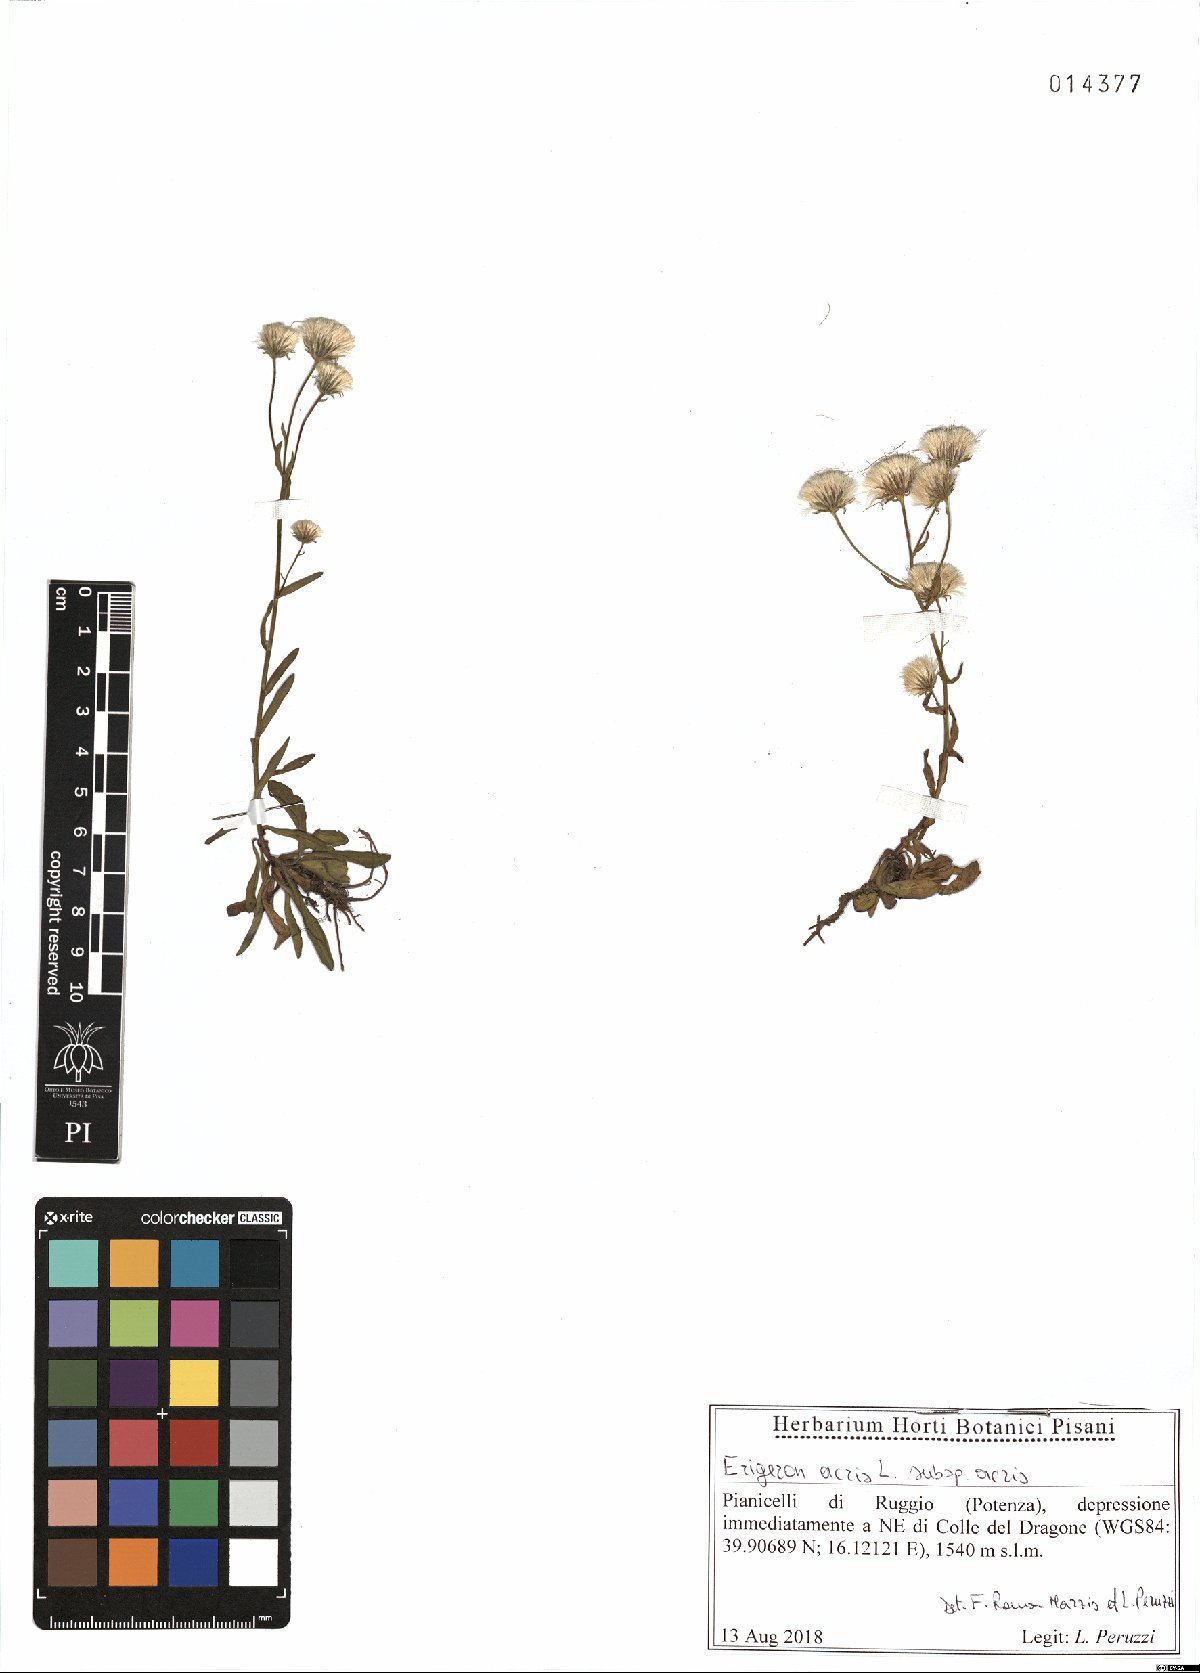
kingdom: Plantae
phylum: Tracheophyta
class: Magnoliopsida
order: Asterales
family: Asteraceae
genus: Erigeron
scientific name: Erigeron acris
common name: Blue fleabane
